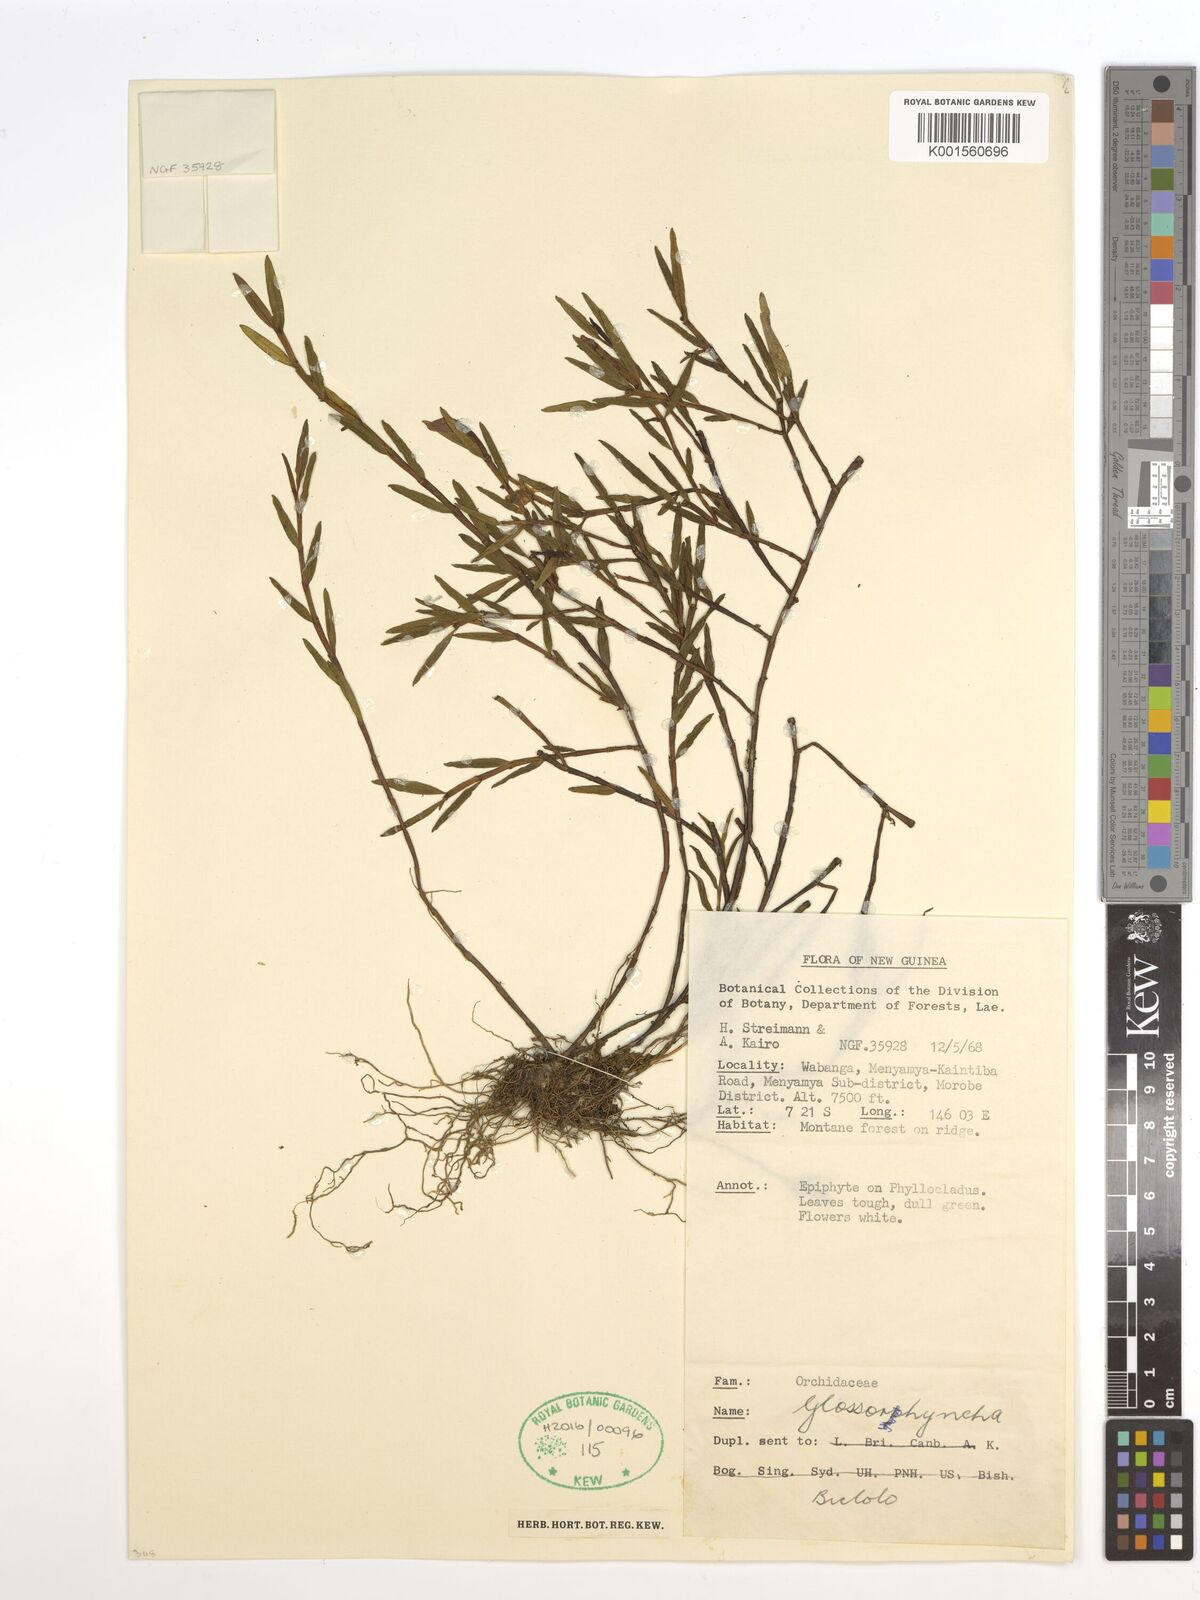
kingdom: Plantae
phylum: Tracheophyta
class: Liliopsida
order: Asparagales
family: Orchidaceae
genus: Glomera
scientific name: Glomera
